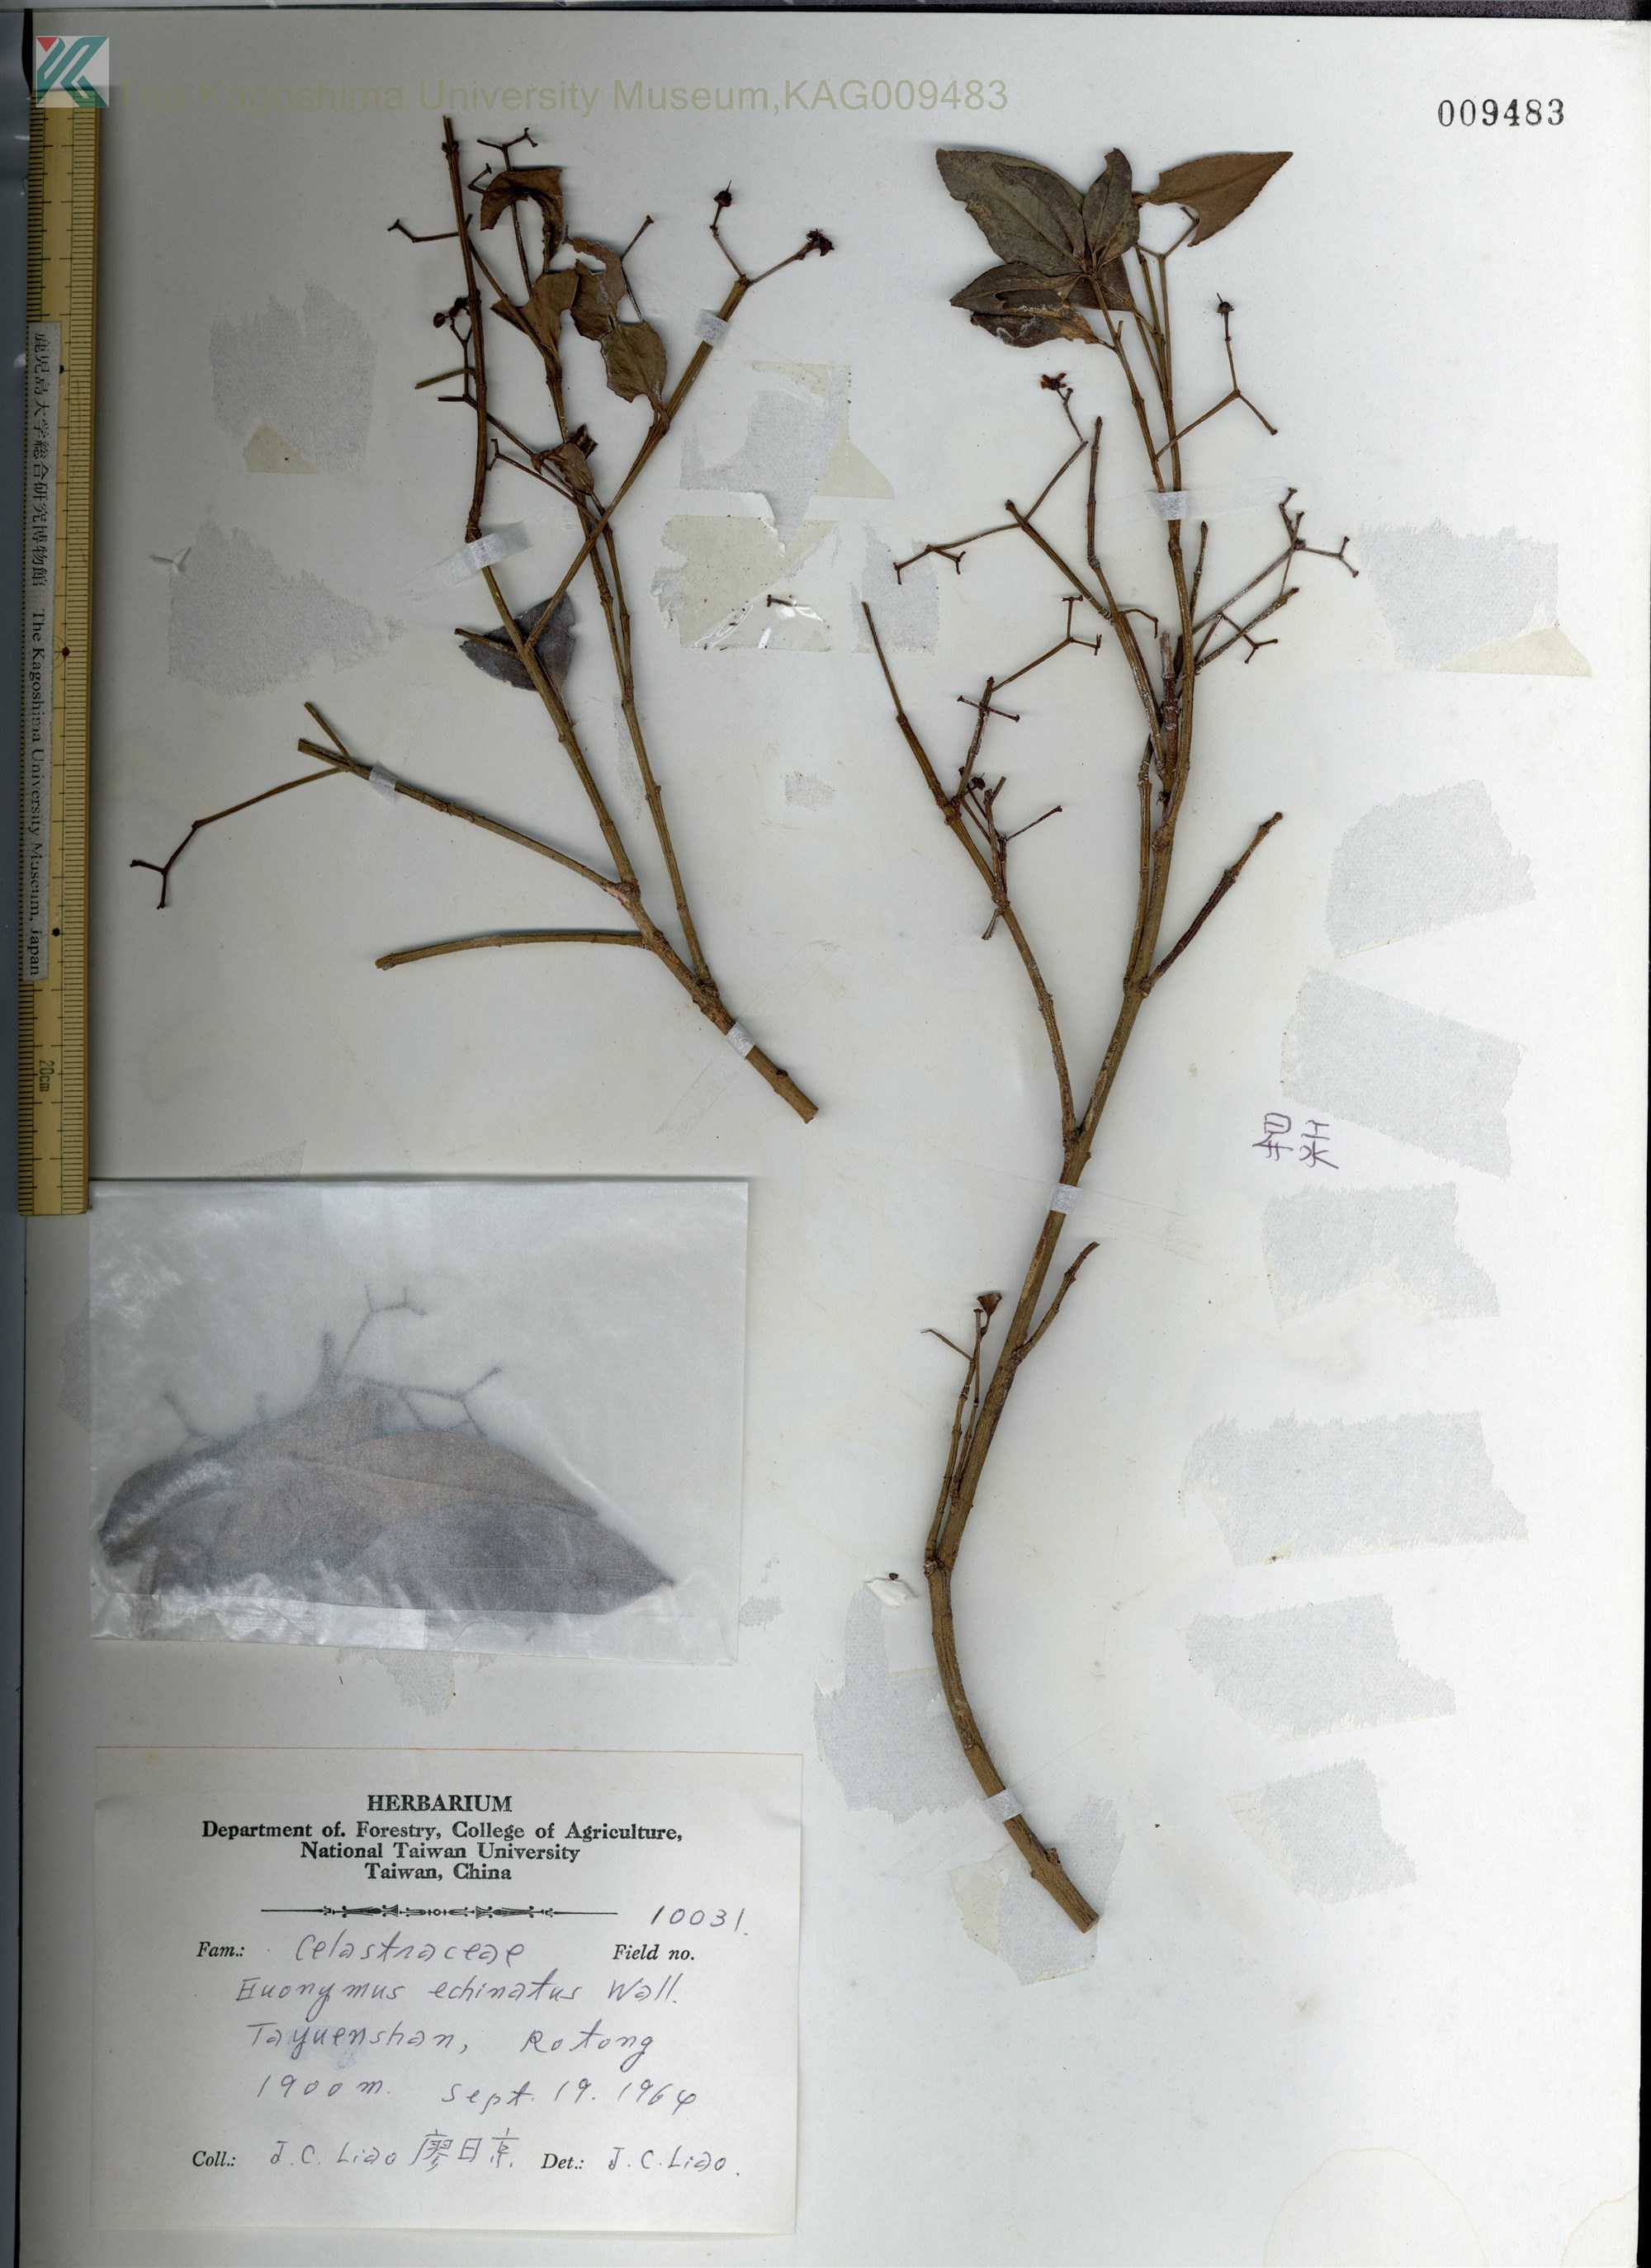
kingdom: Plantae
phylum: Tracheophyta
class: Magnoliopsida
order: Celastrales
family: Celastraceae
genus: Euonymus
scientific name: Euonymus echinatus
